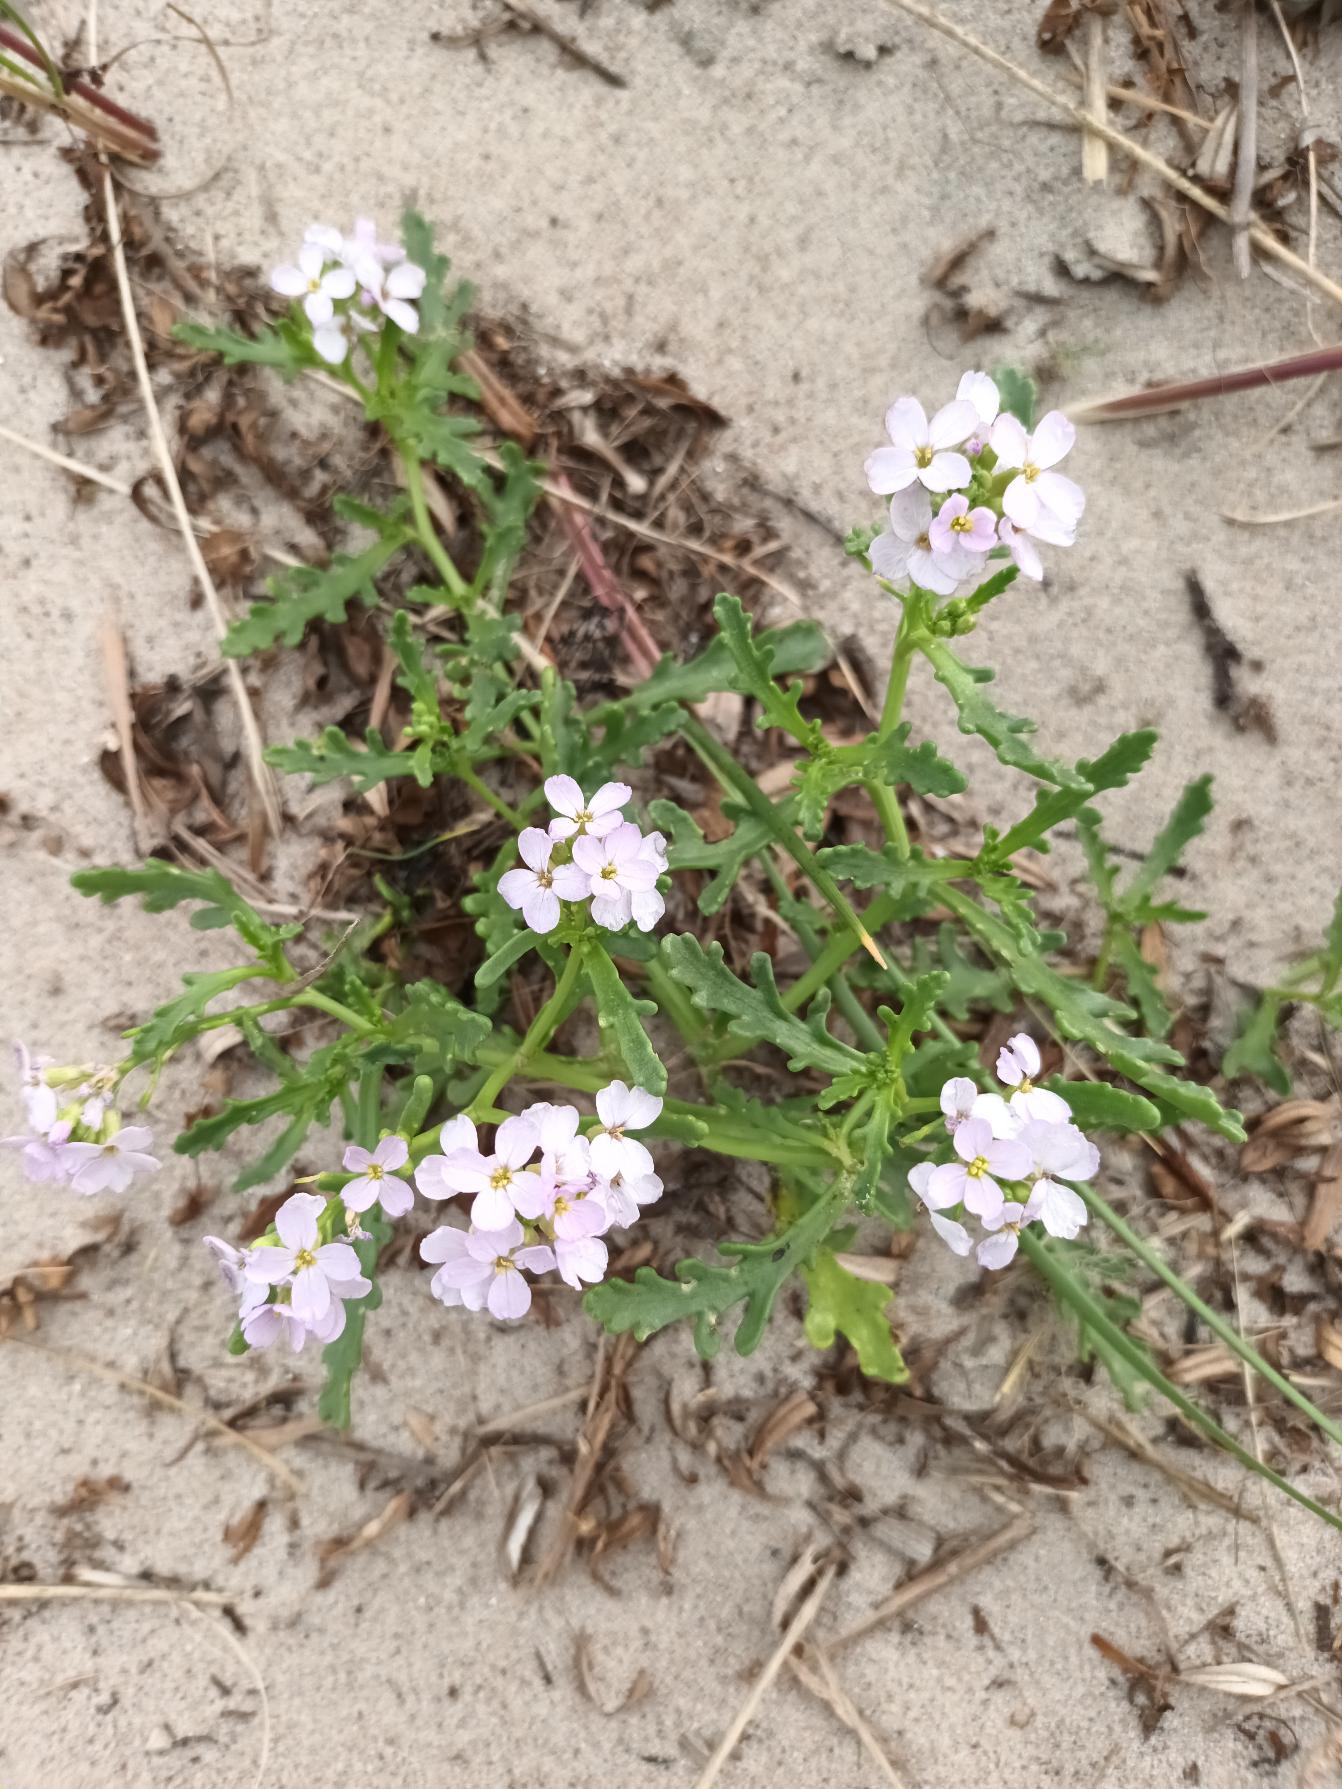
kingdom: Plantae
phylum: Tracheophyta
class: Magnoliopsida
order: Brassicales
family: Brassicaceae
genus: Cakile
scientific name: Cakile maritima
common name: Strandsennep
